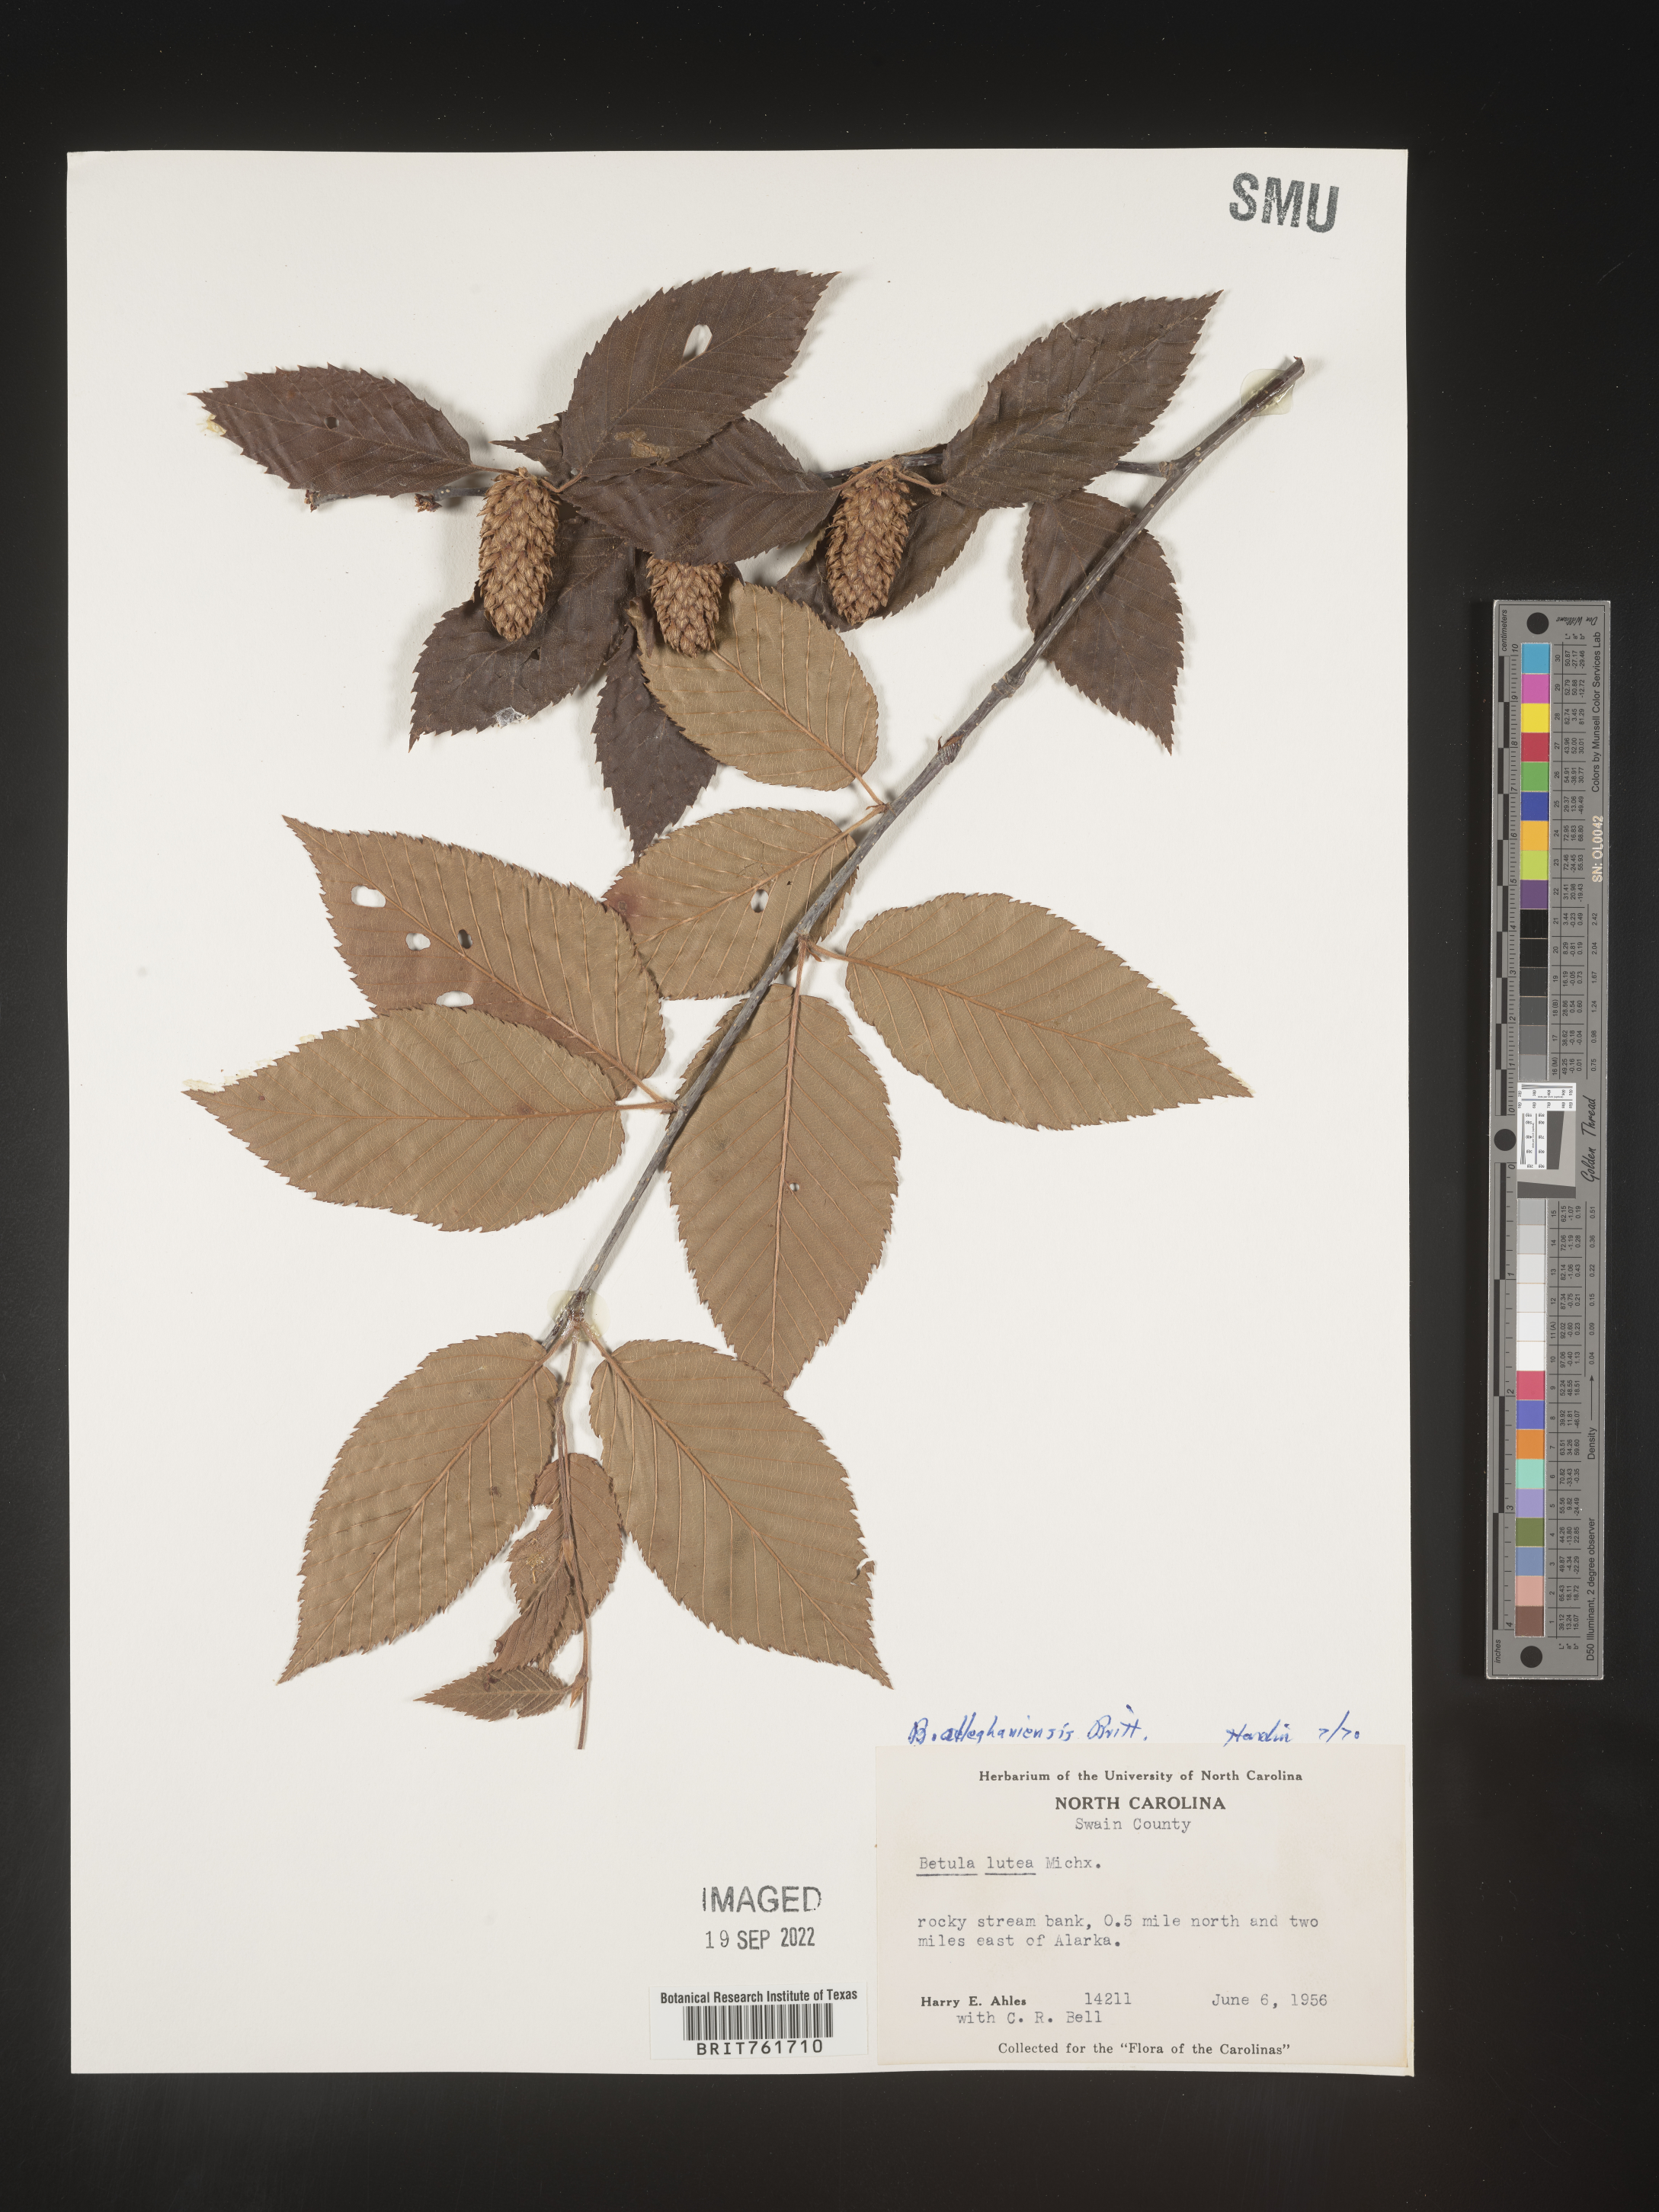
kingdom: Plantae
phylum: Tracheophyta
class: Magnoliopsida
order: Fagales
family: Betulaceae
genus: Betula
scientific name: Betula alleghaniensis
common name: Yellow birch
